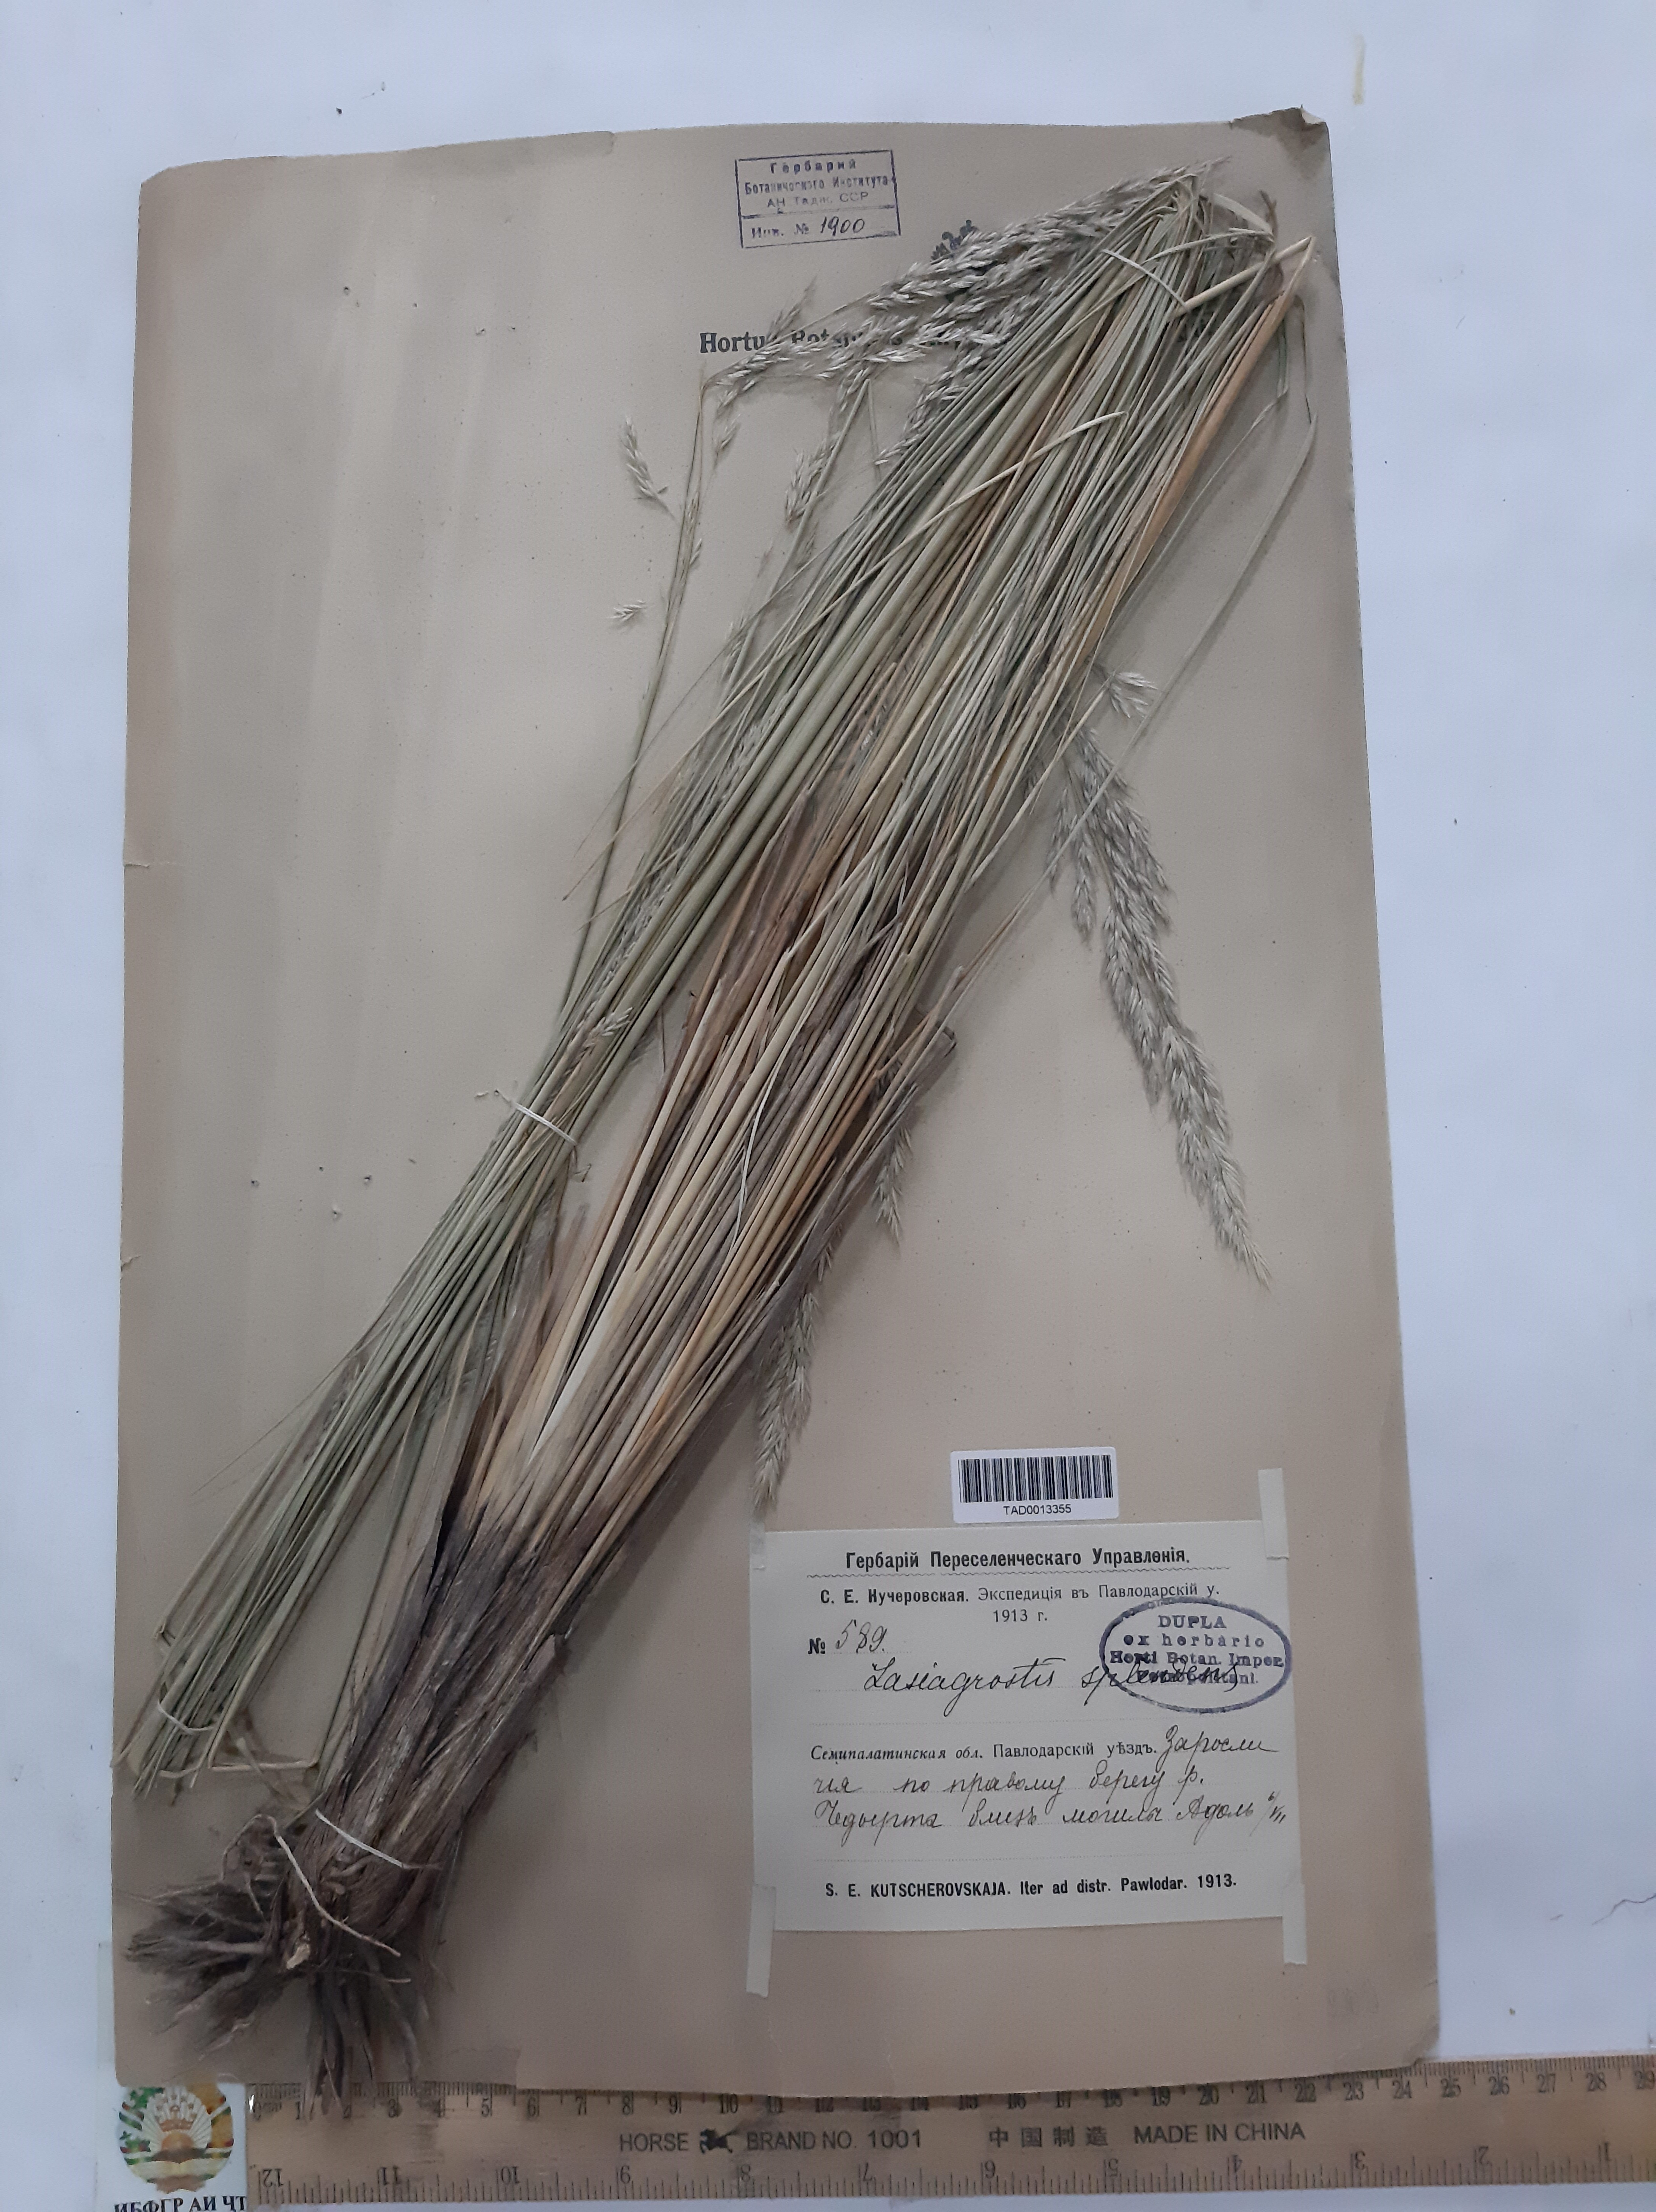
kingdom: Plantae
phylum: Tracheophyta
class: Liliopsida
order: Poales
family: Poaceae
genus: Neotrinia
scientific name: Neotrinia splendens
